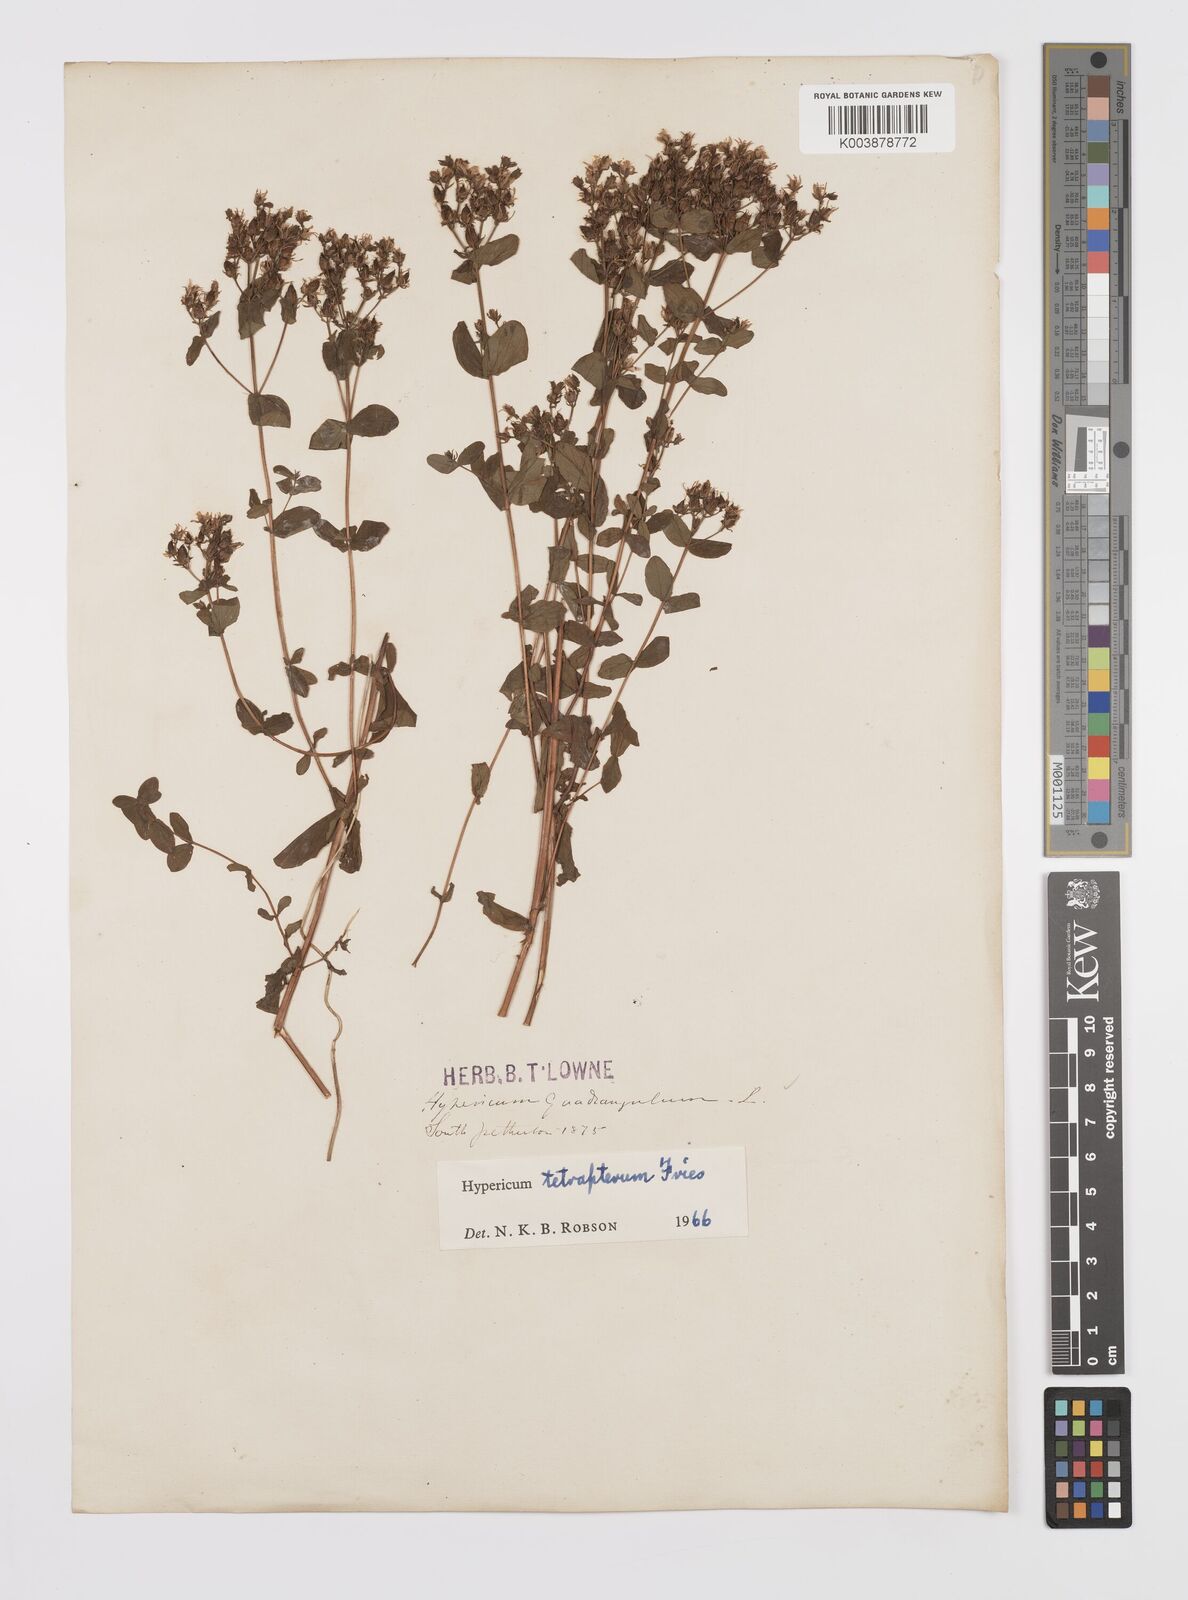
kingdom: Plantae
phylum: Tracheophyta
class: Magnoliopsida
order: Malpighiales
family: Hypericaceae
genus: Hypericum
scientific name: Hypericum tetrapterum
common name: Square-stalked st. john's-wort
